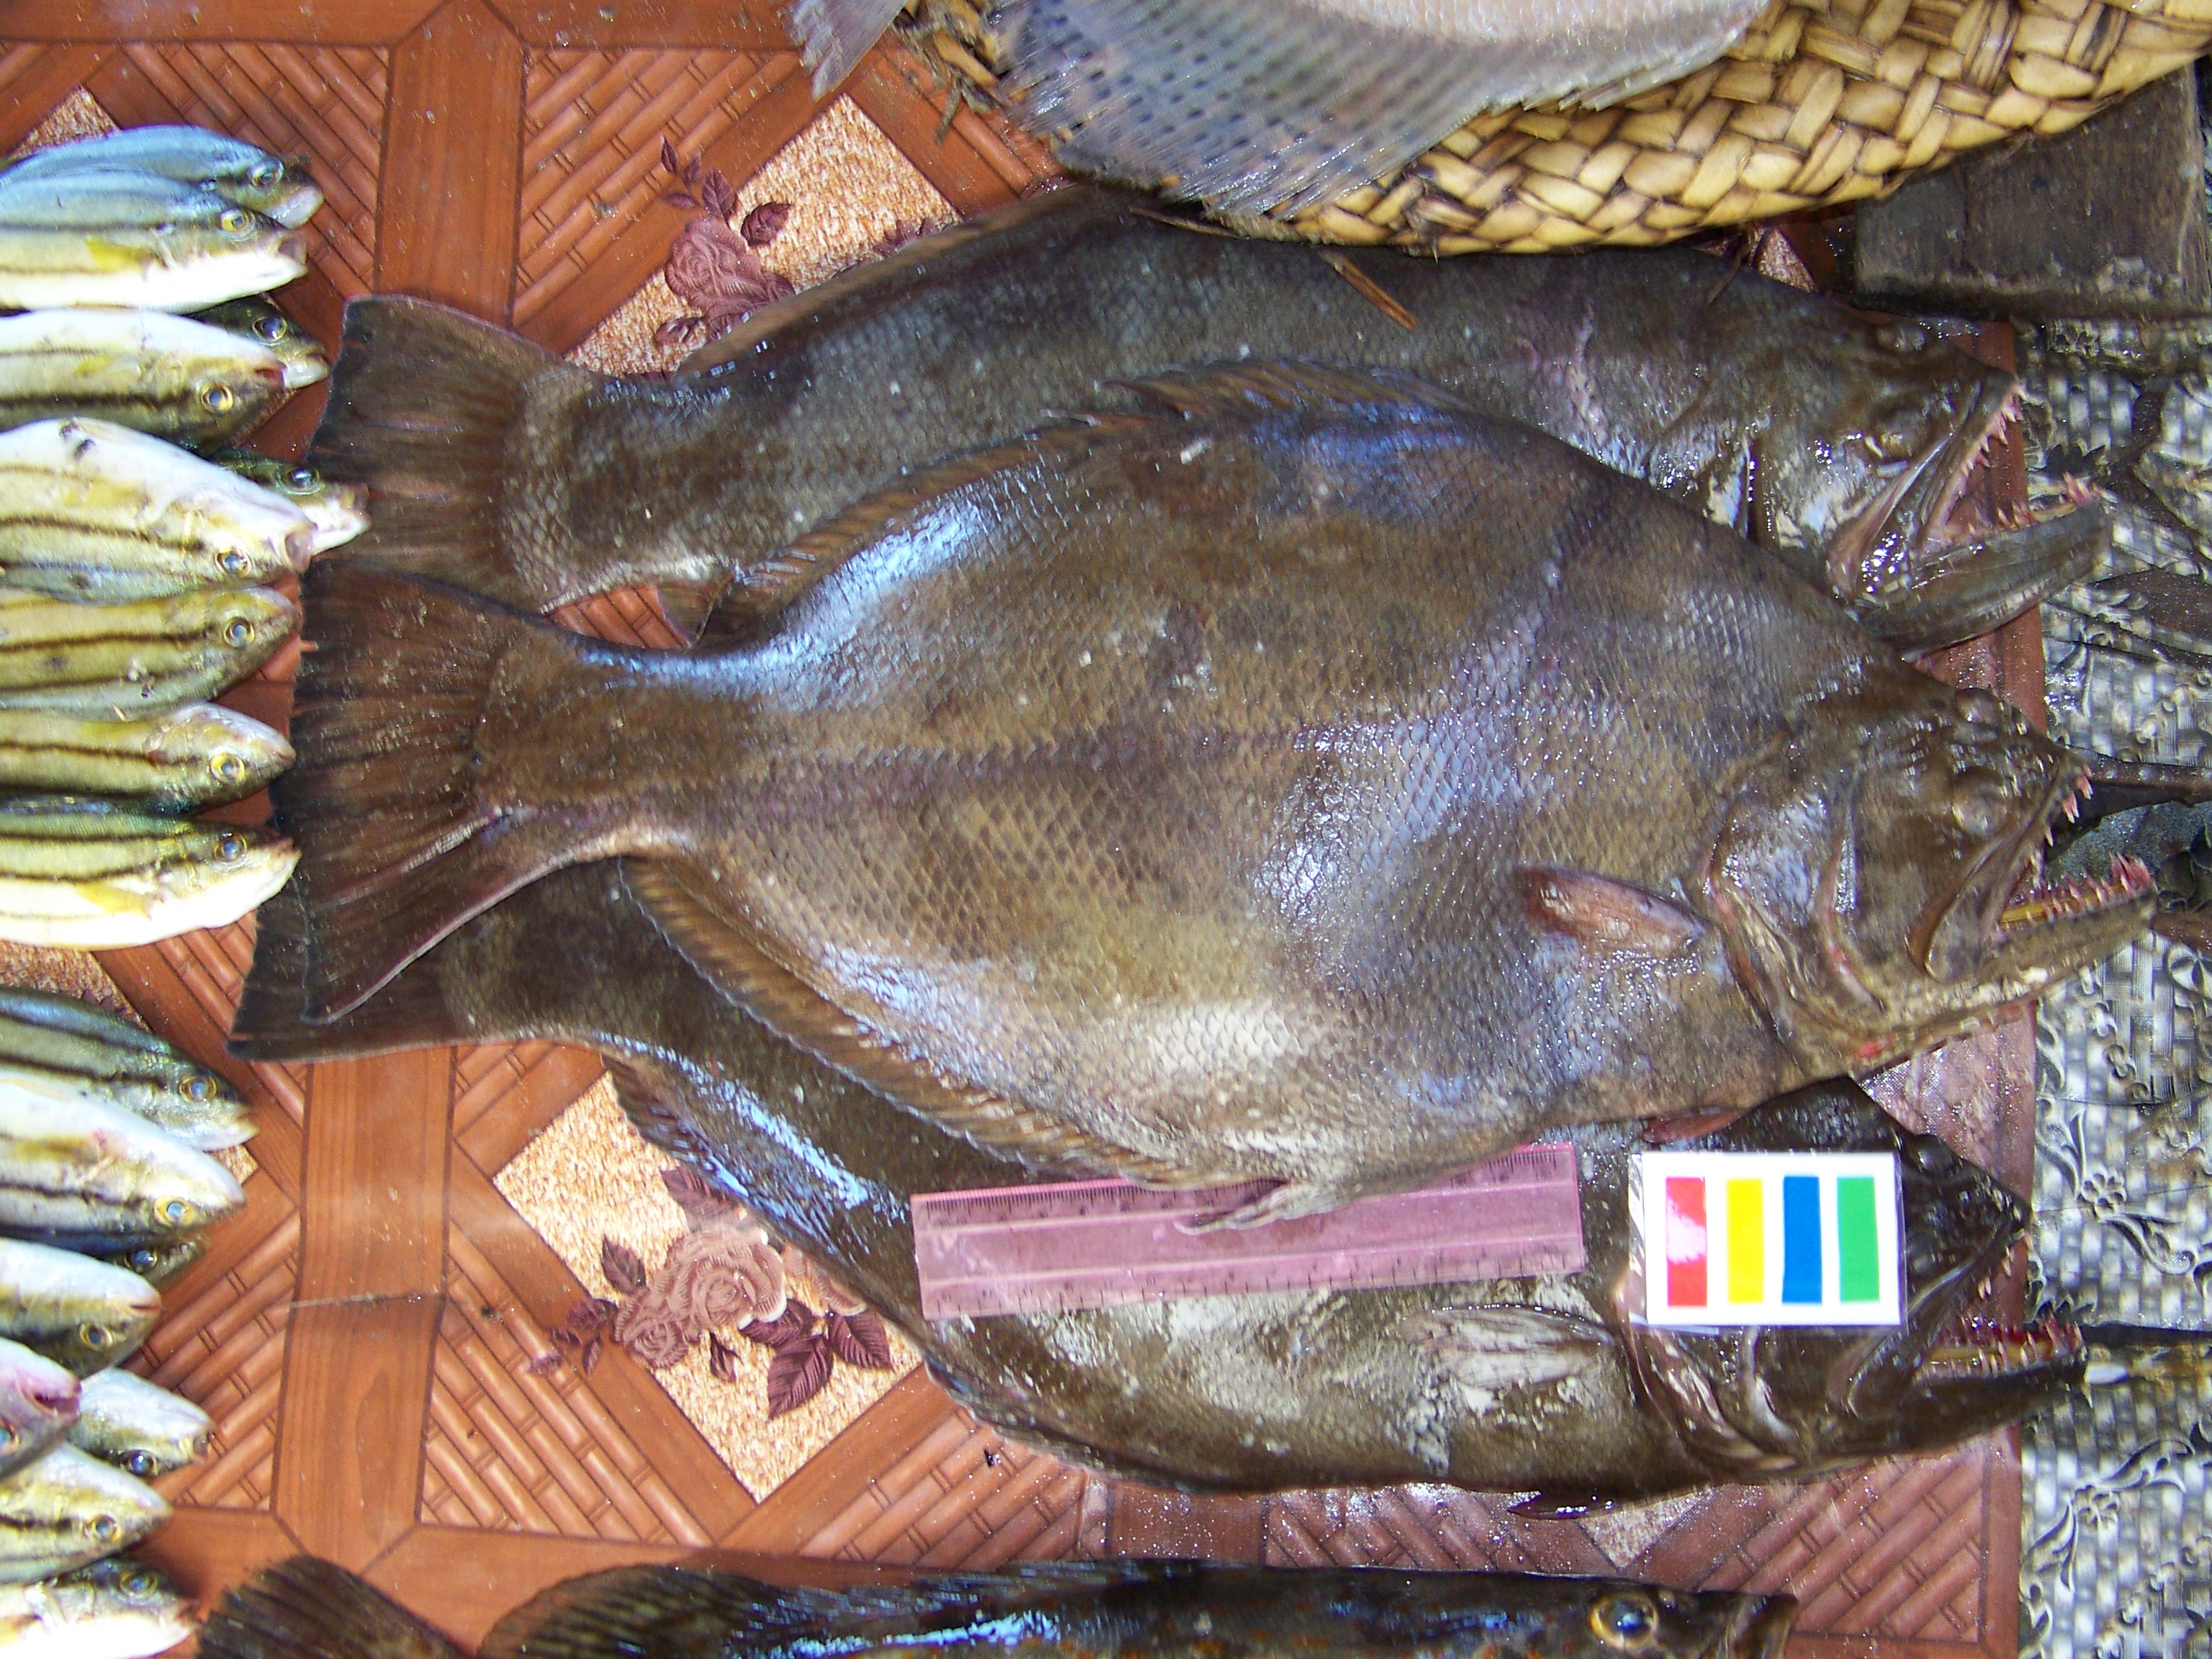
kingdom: Animalia
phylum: Chordata
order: Pleuronectiformes
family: Psettodidae
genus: Psettodes
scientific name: Psettodes erumei
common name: Indian halibut
